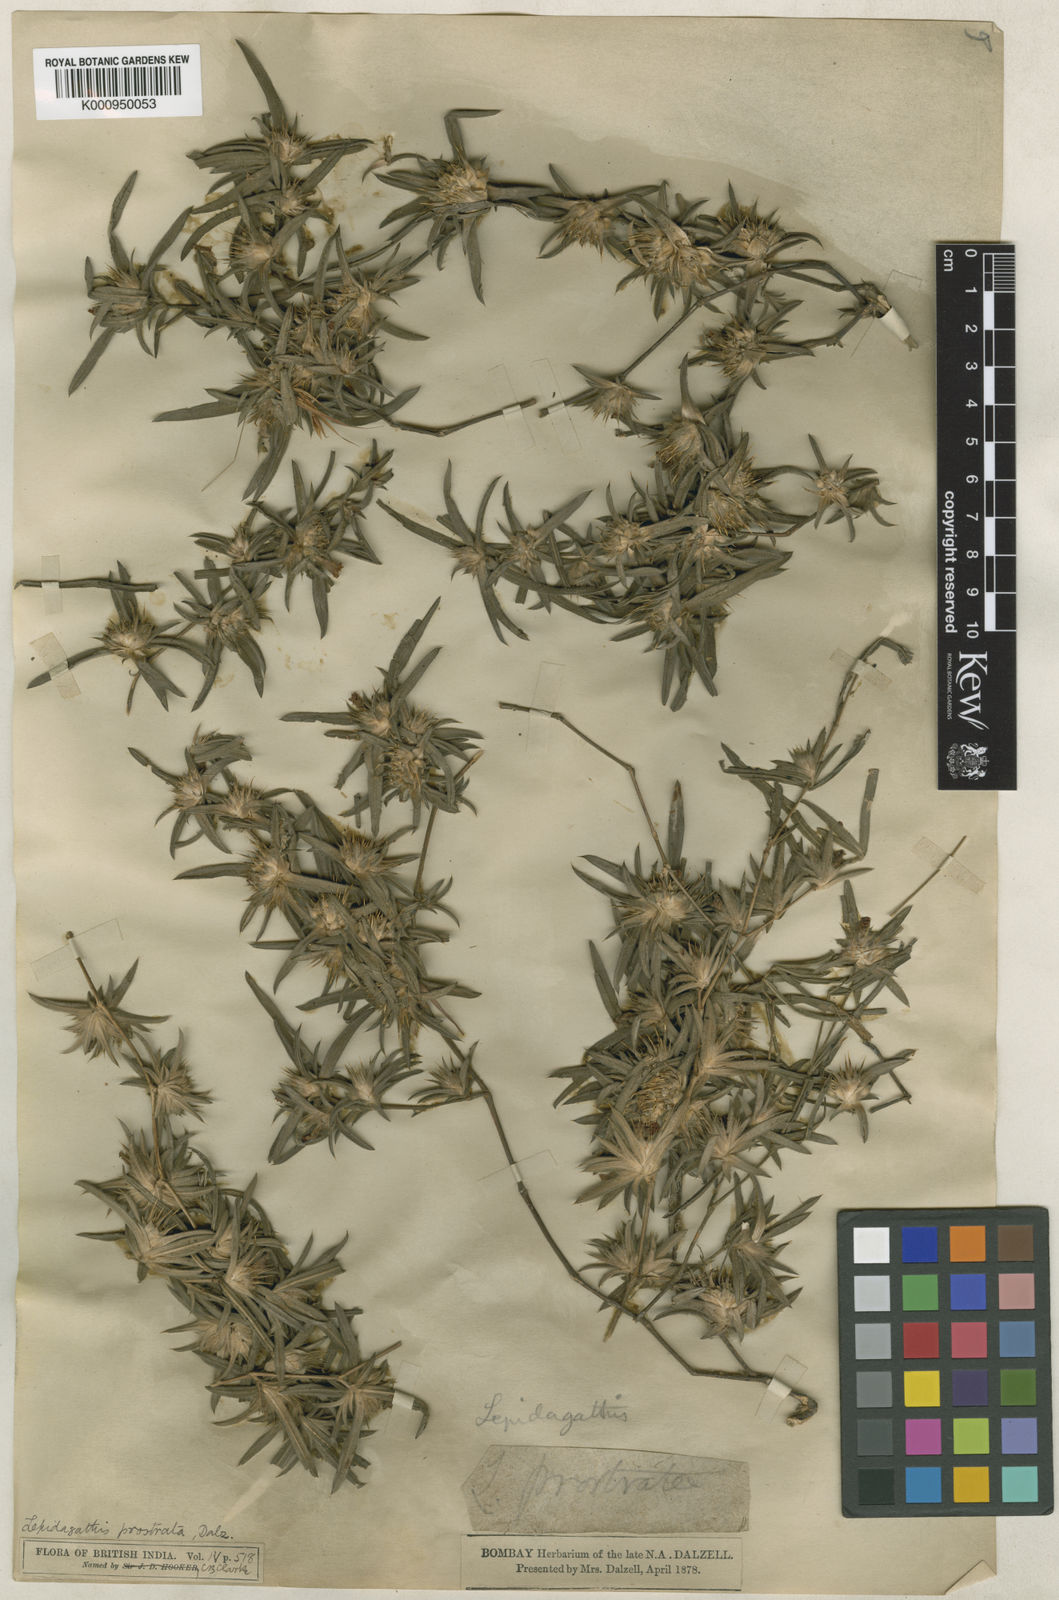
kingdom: Plantae
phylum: Tracheophyta
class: Magnoliopsida
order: Lamiales
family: Acanthaceae
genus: Lepidagathis
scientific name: Lepidagathis prostrata
